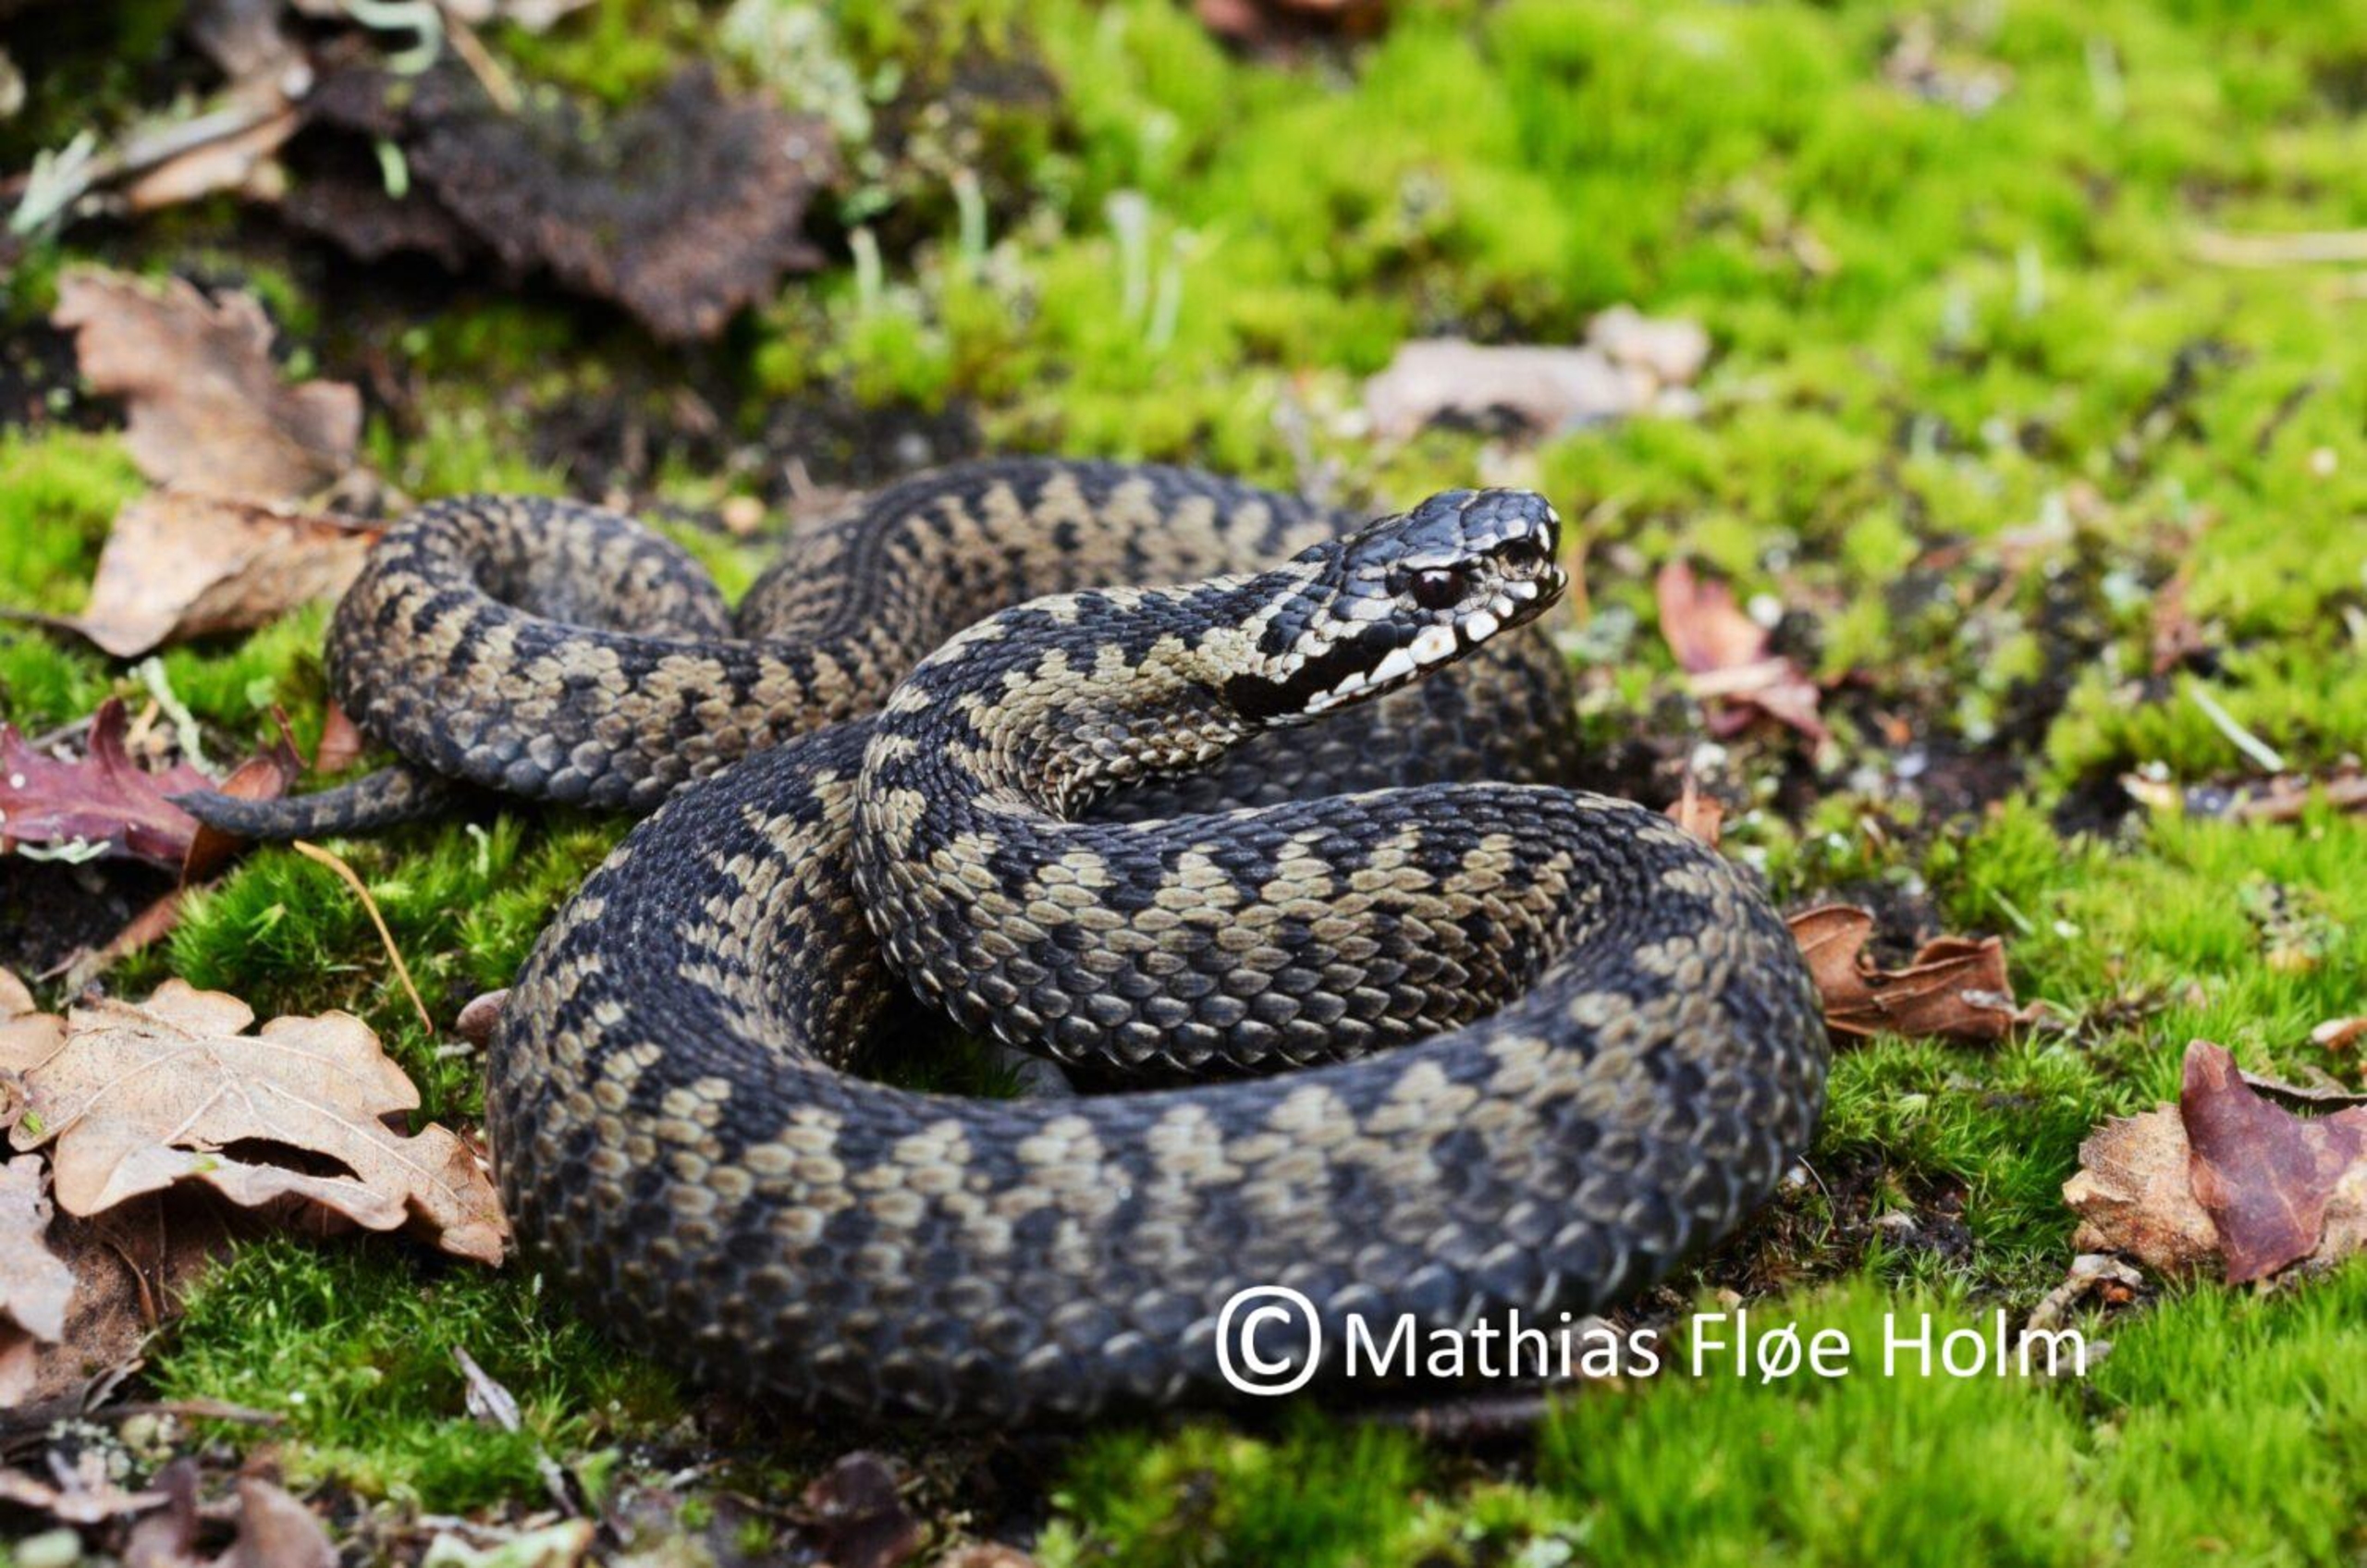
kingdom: Animalia
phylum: Chordata
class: Squamata
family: Viperidae
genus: Vipera
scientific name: Vipera berus
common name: Hugorm
